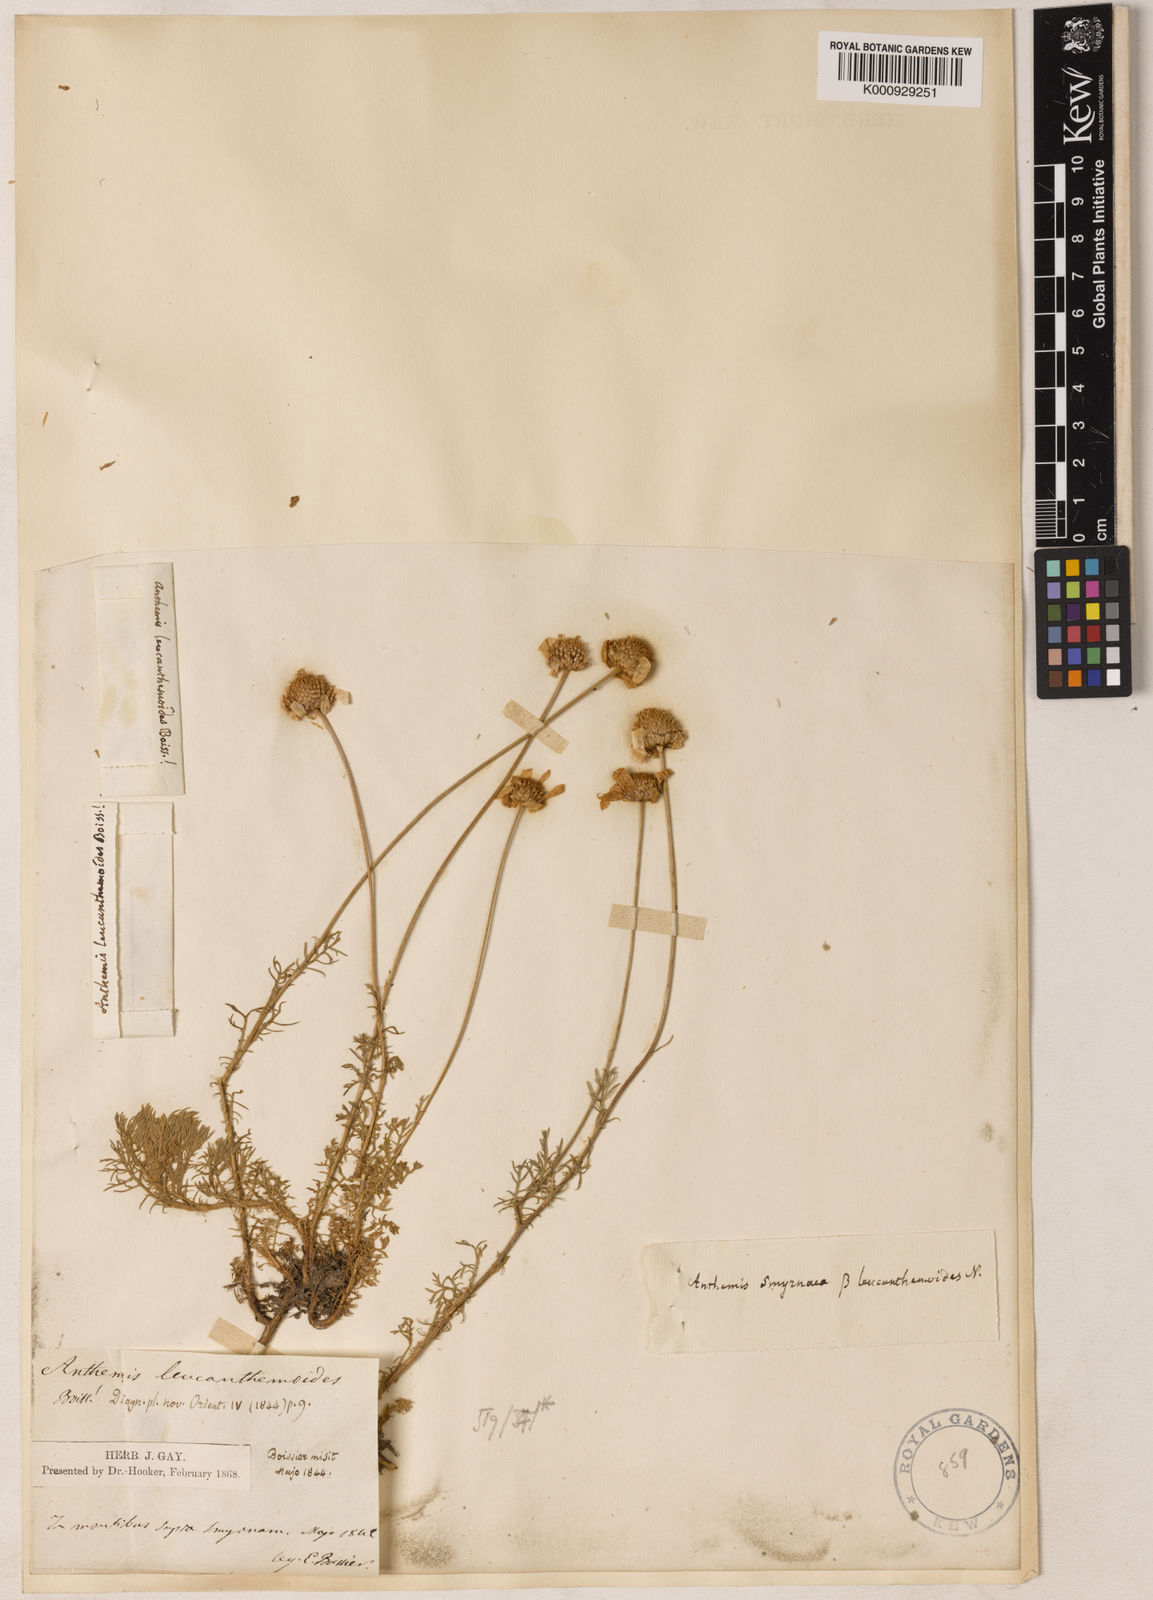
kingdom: Plantae
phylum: Tracheophyta
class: Magnoliopsida
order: Asterales
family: Asteraceae
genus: Anthemis
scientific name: Anthemis cretica
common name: Mountain dog-daisy
